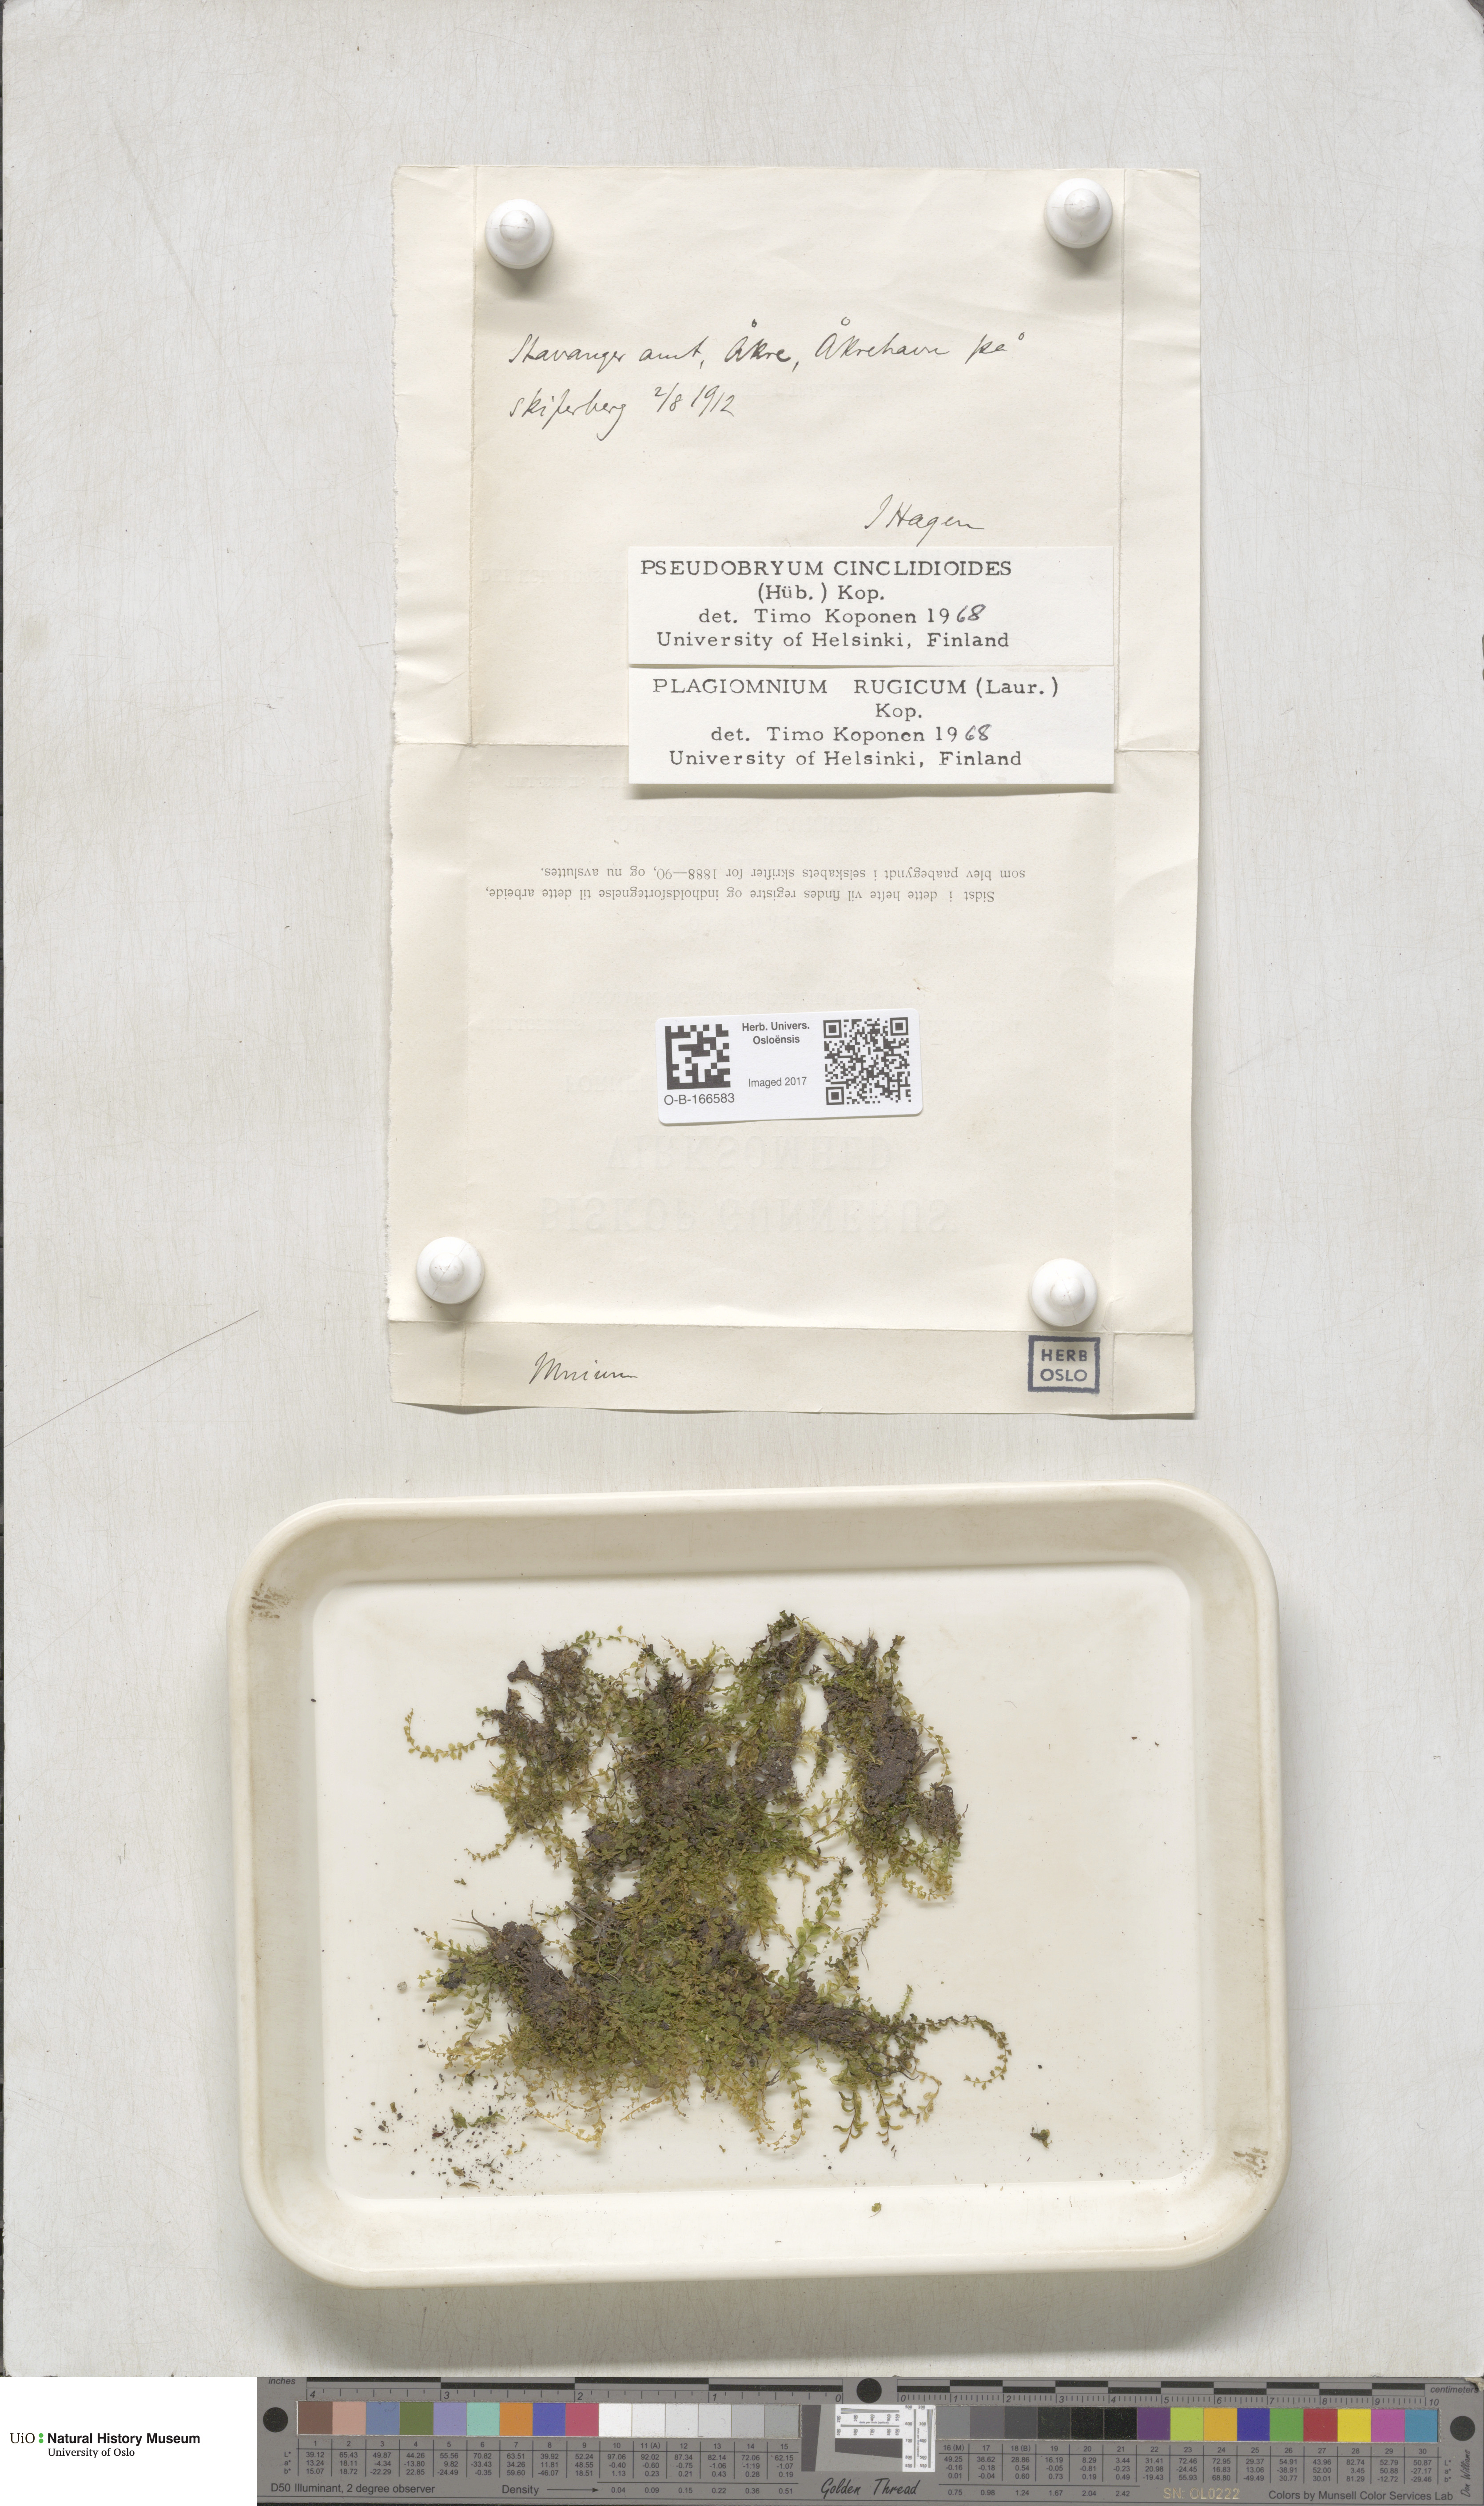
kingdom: Plantae
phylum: Bryophyta
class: Bryopsida
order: Bryales
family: Mniaceae
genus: Pseudobryum
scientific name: Pseudobryum cinclidioides
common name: River thyme moss
